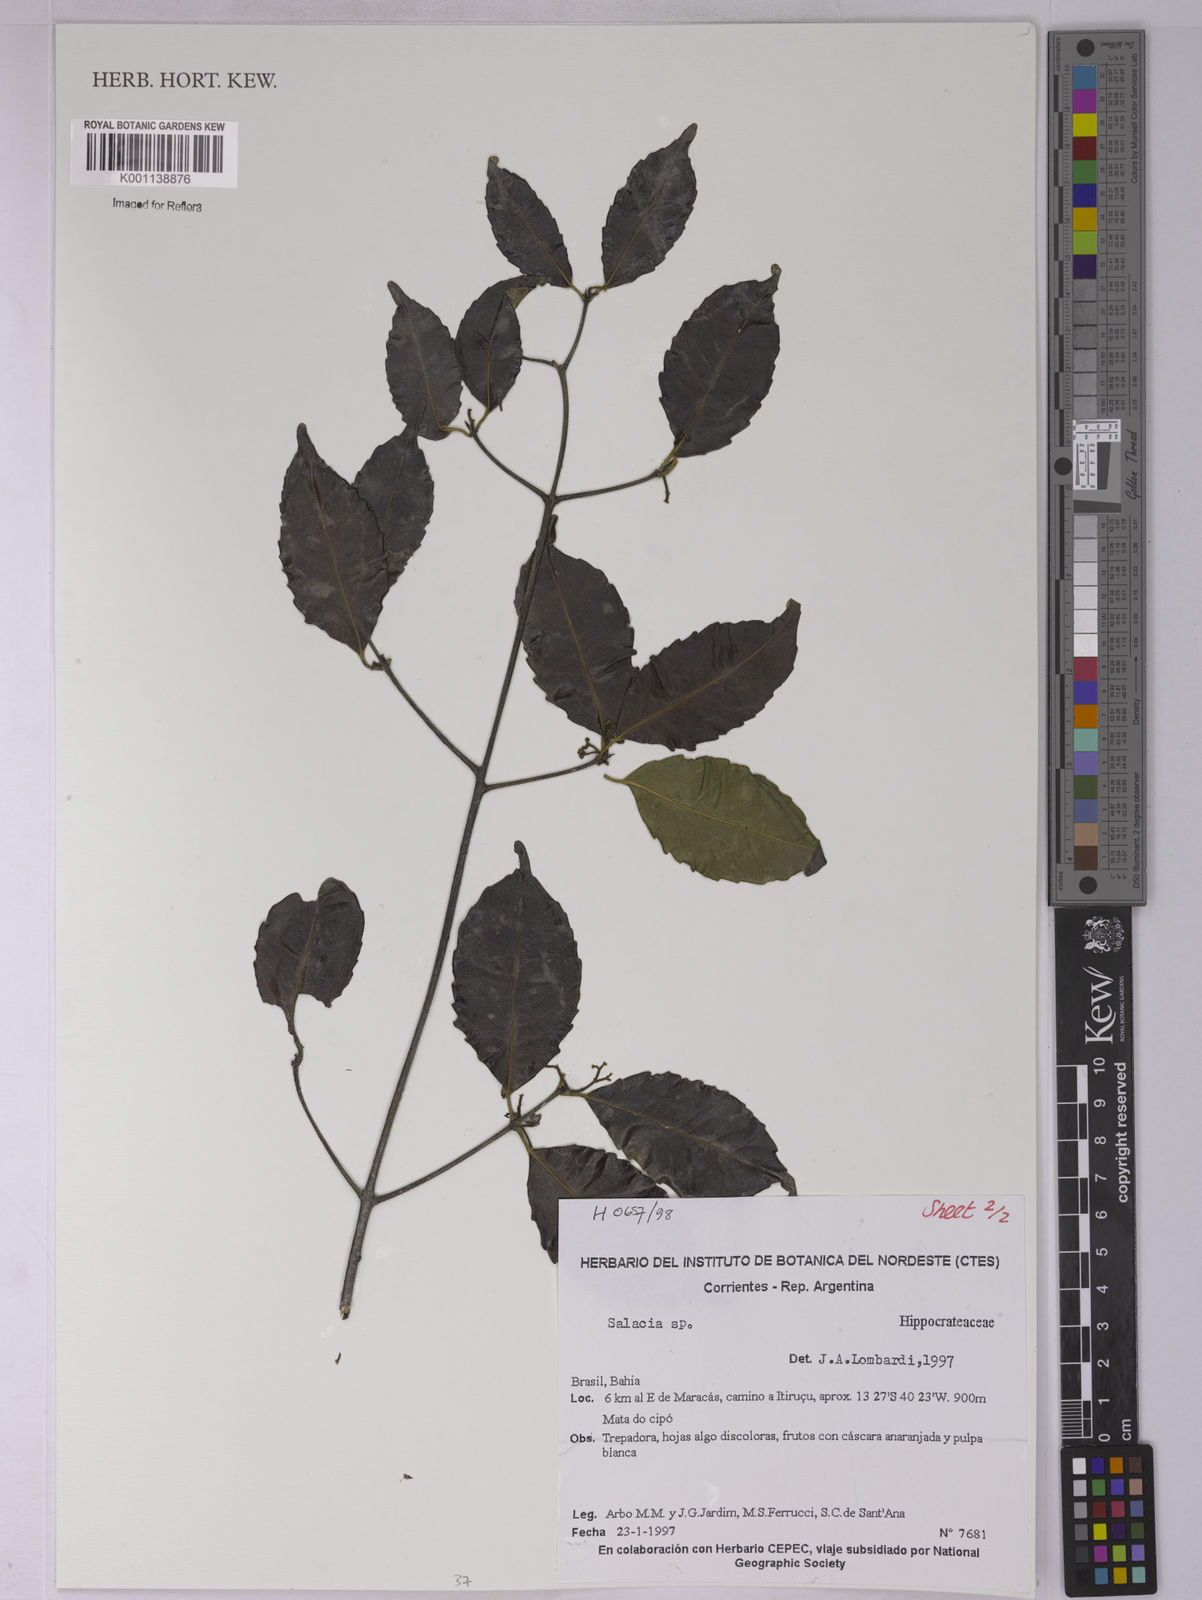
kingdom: Plantae
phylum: Tracheophyta
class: Magnoliopsida
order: Celastrales
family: Celastraceae
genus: Salacia
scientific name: Salacia
